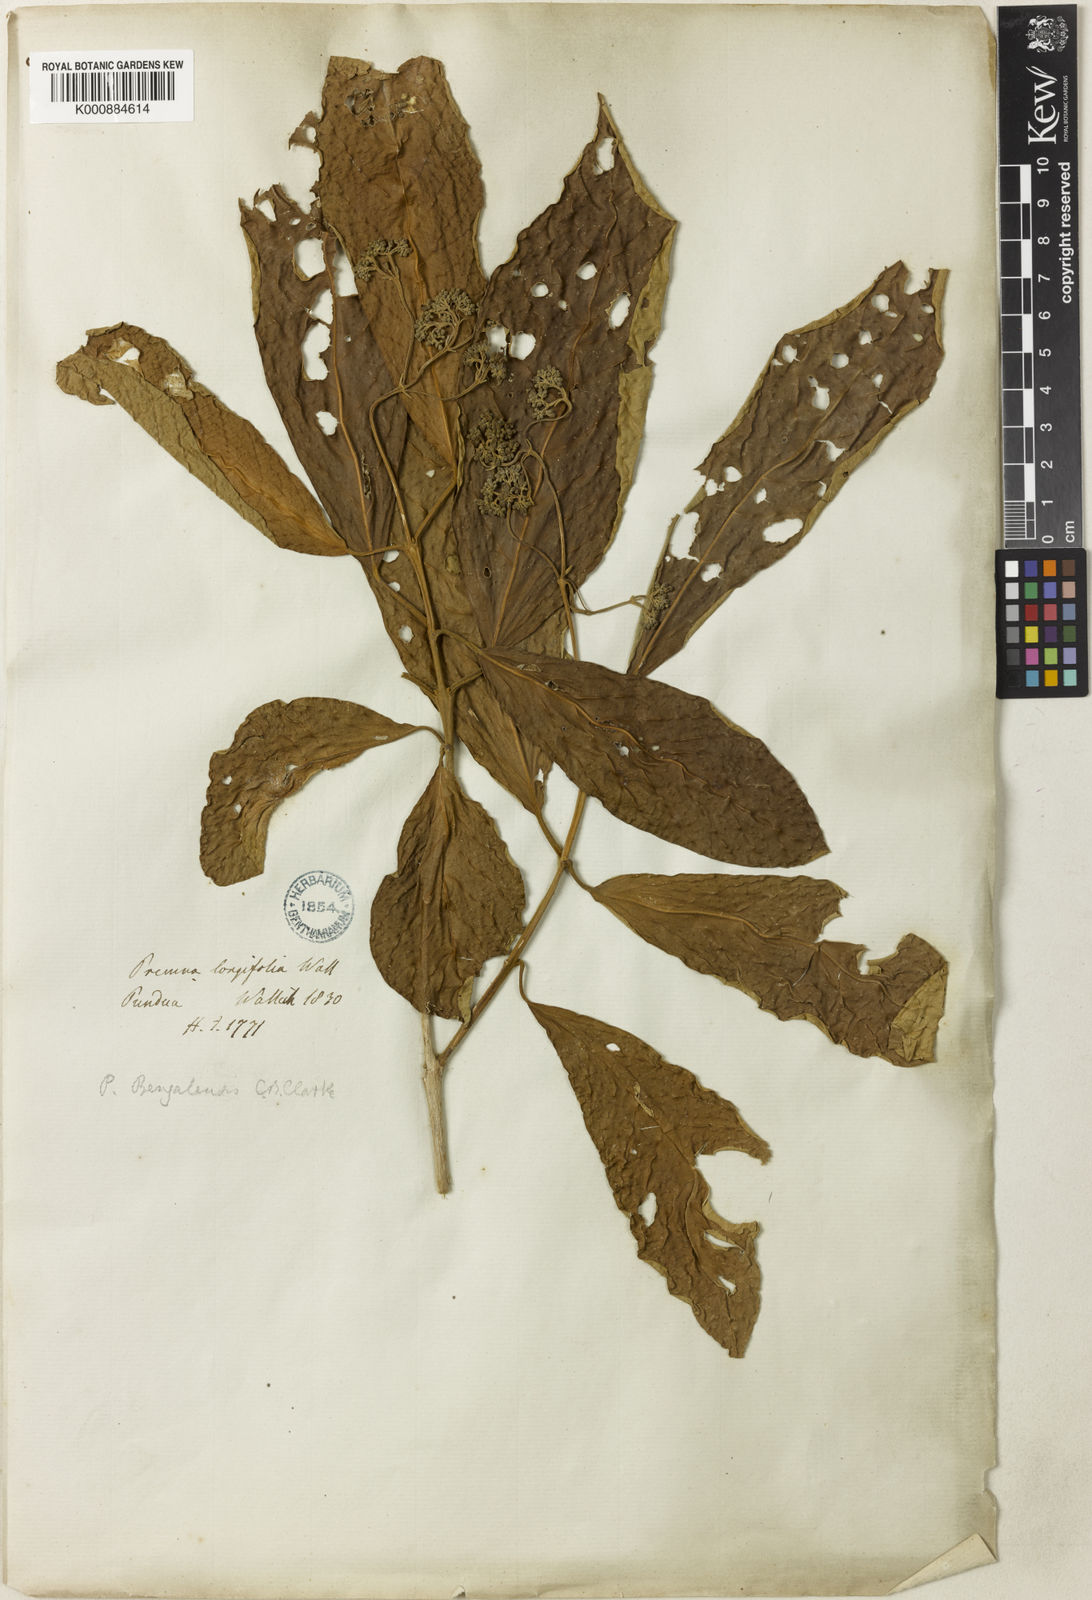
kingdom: Plantae
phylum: Tracheophyta
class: Magnoliopsida
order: Lamiales
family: Lamiaceae
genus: Premna
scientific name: Premna bengalensis
